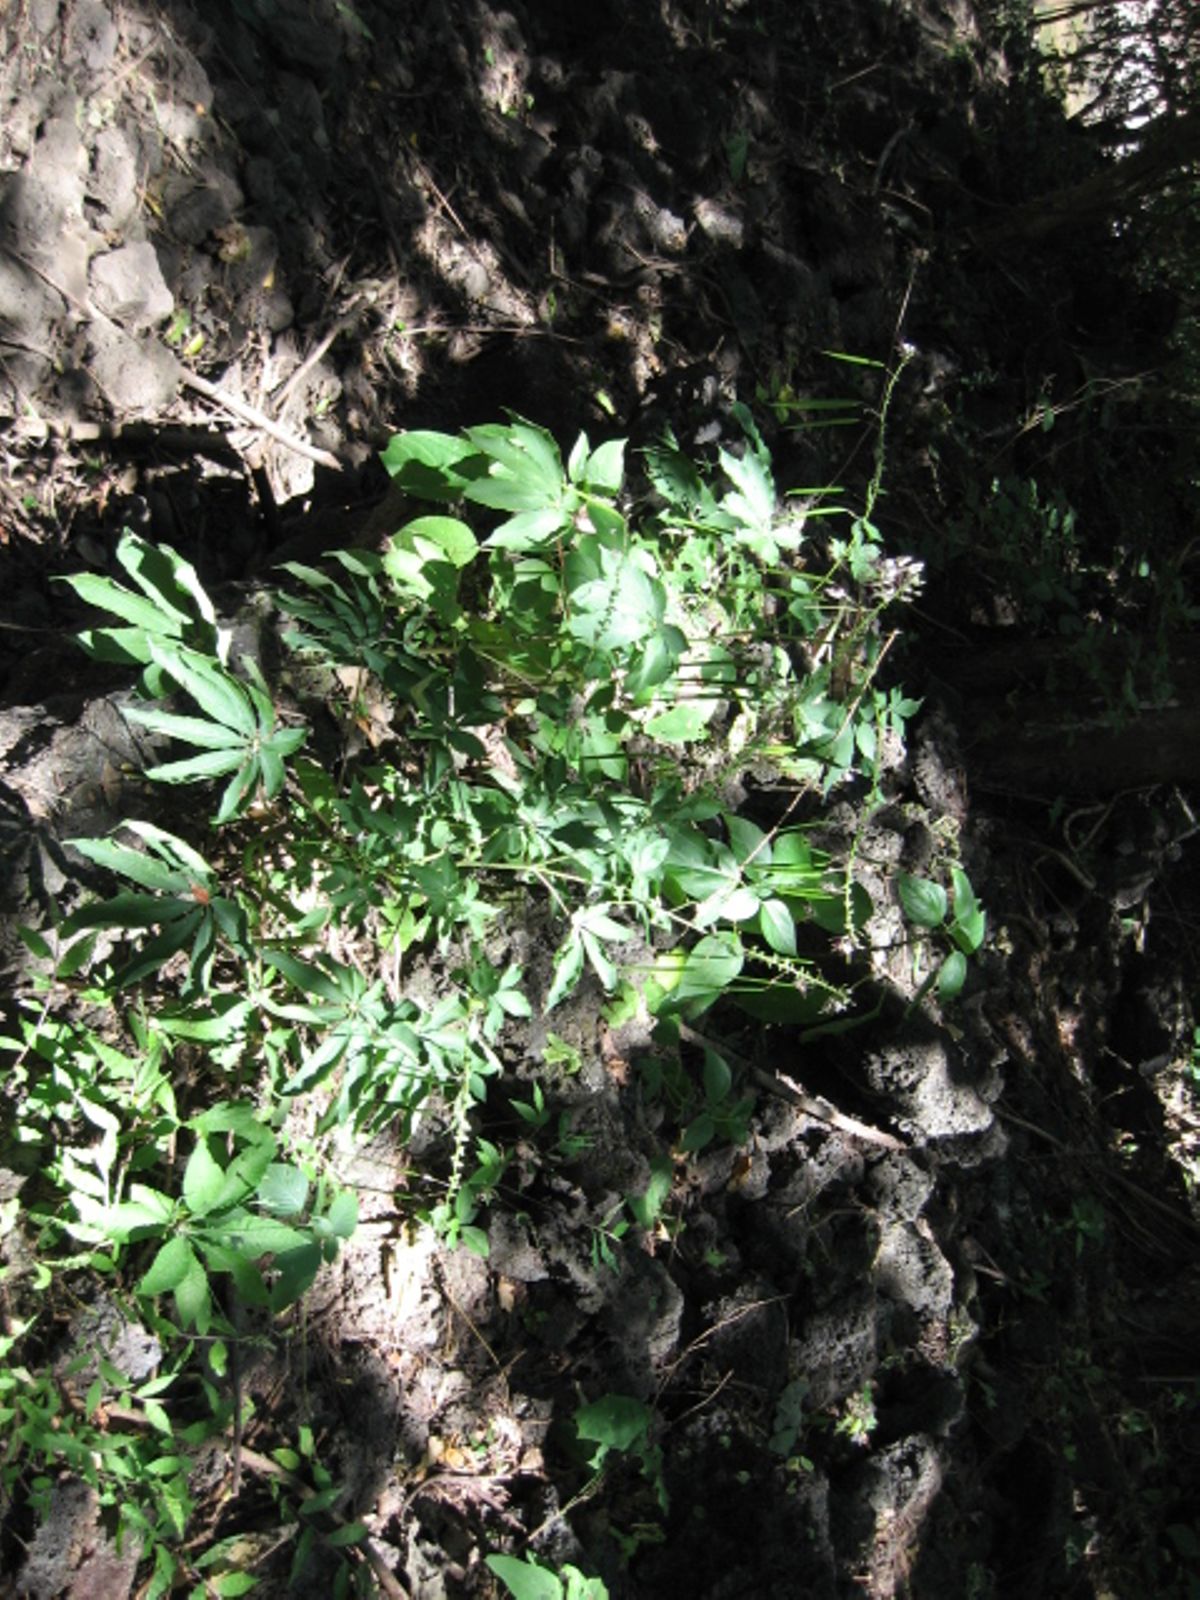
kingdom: Plantae
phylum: Tracheophyta
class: Magnoliopsida
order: Brassicales
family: Cleomaceae
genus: Cochranella
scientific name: Cochranella pilosa
